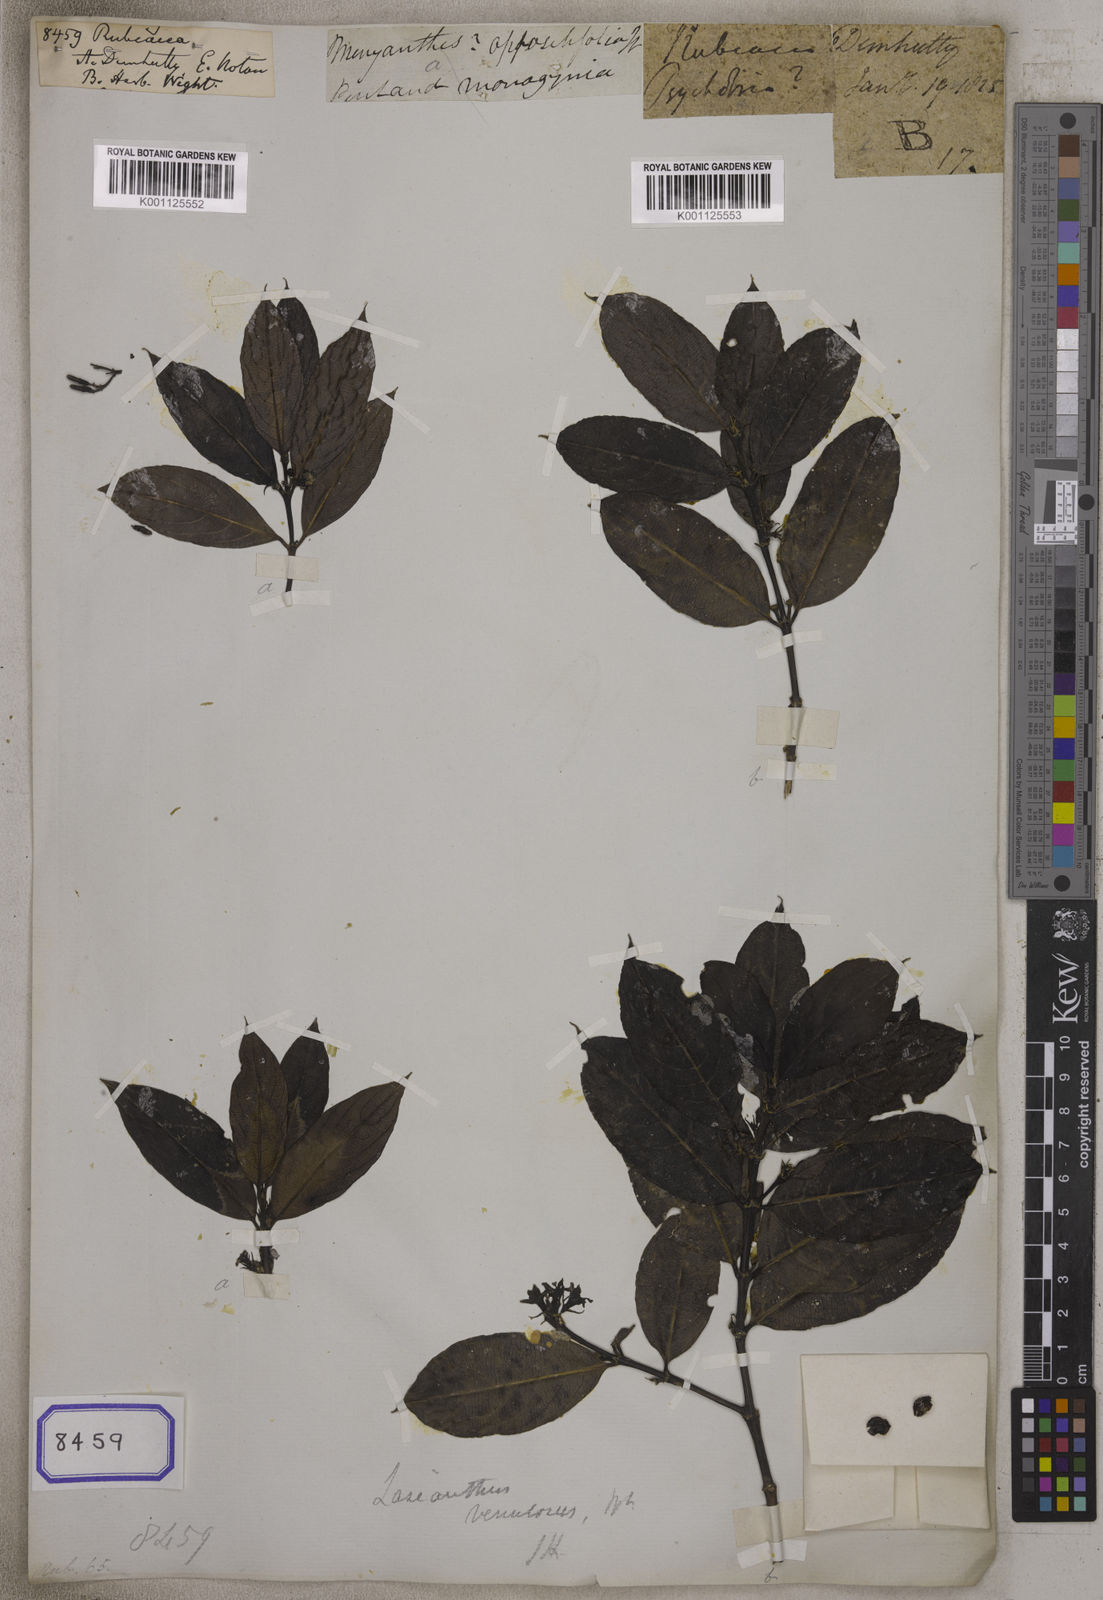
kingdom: Plantae
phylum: Tracheophyta
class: Magnoliopsida
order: Gentianales
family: Rubiaceae
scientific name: Rubiaceae
